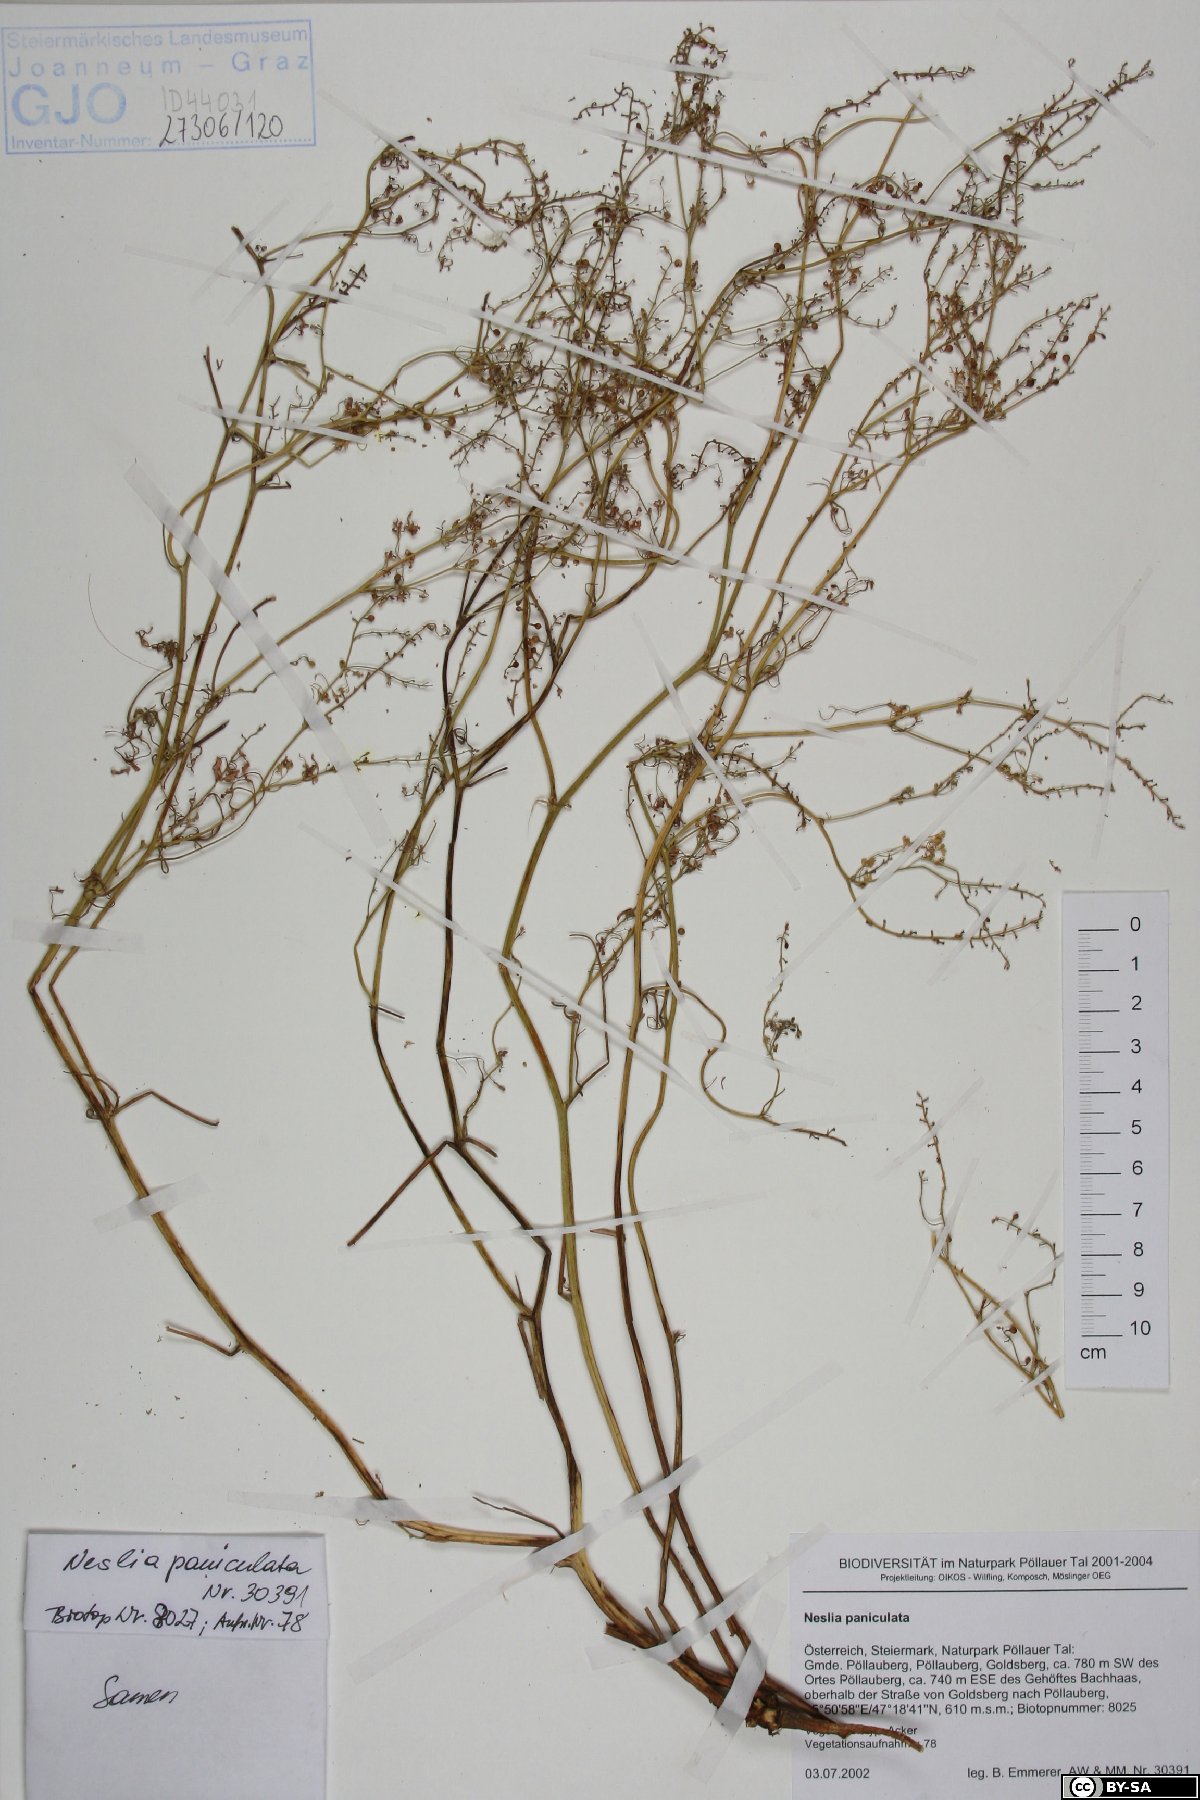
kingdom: Plantae
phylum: Tracheophyta
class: Magnoliopsida
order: Brassicales
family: Brassicaceae
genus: Neslia
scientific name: Neslia paniculata
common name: Ball mustard
